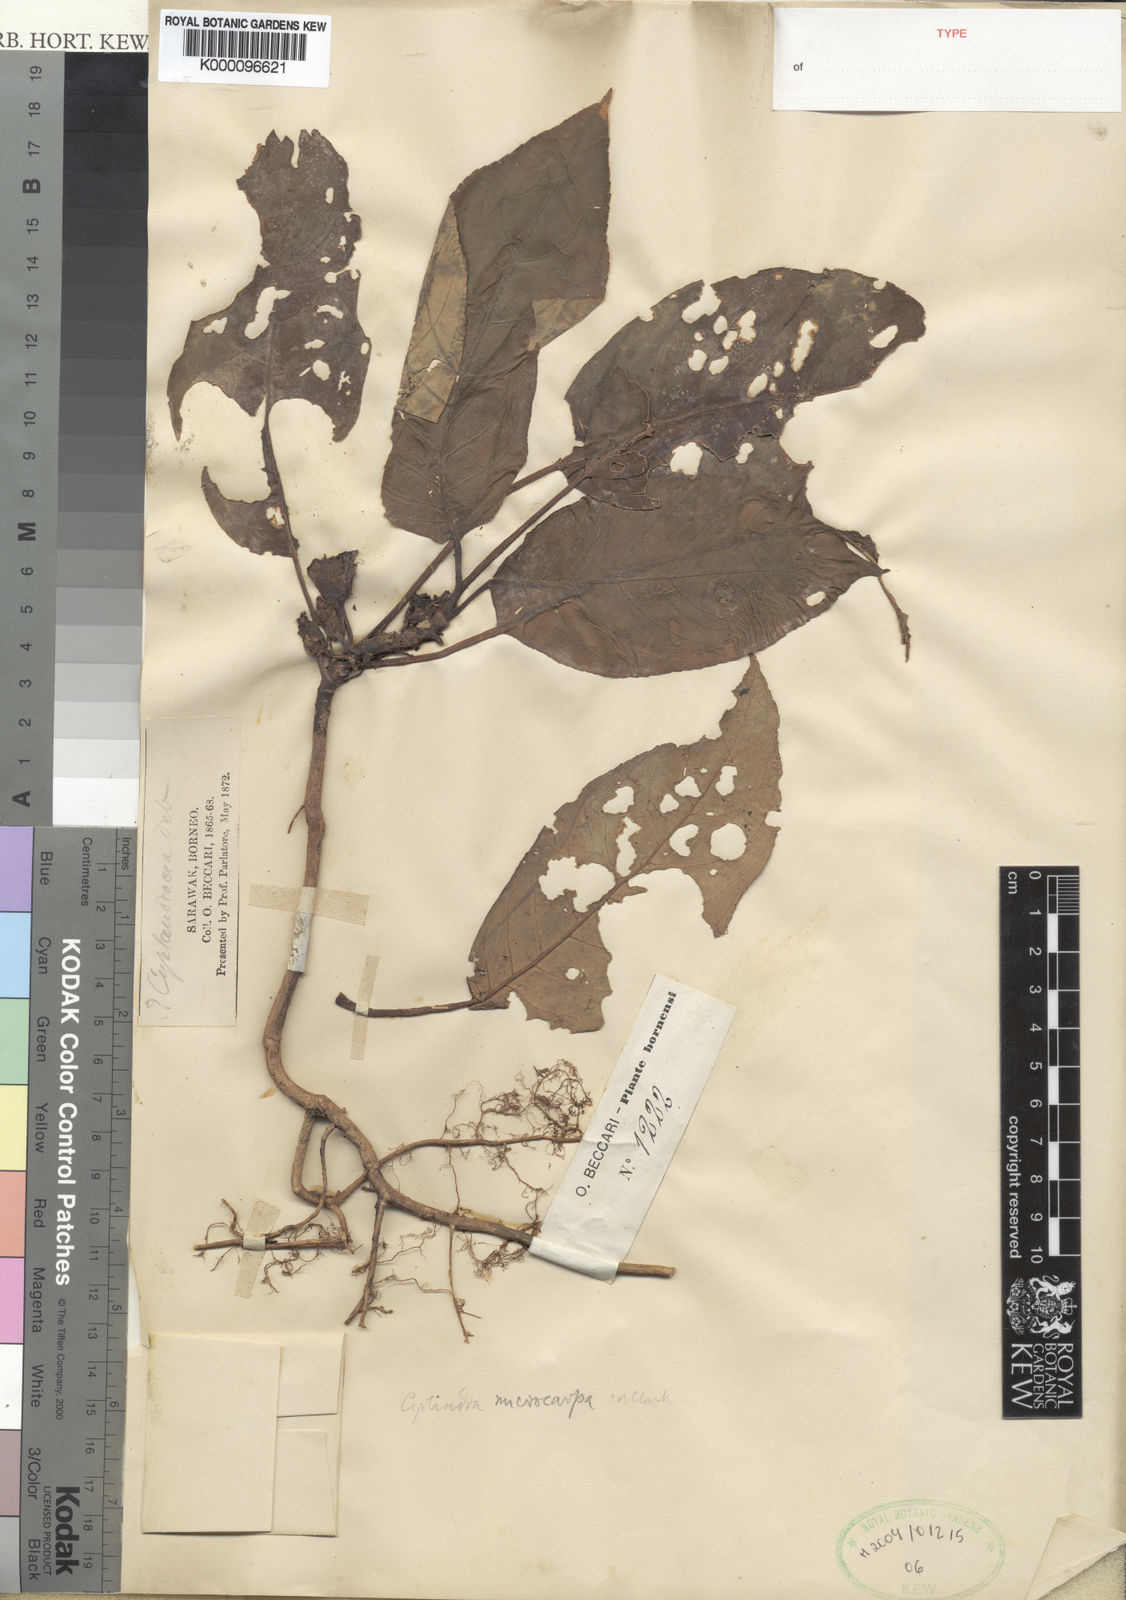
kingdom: Plantae
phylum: Tracheophyta
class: Magnoliopsida
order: Lamiales
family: Gesneriaceae
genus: Rhynchotechum
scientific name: Rhynchotechum parviflorum
